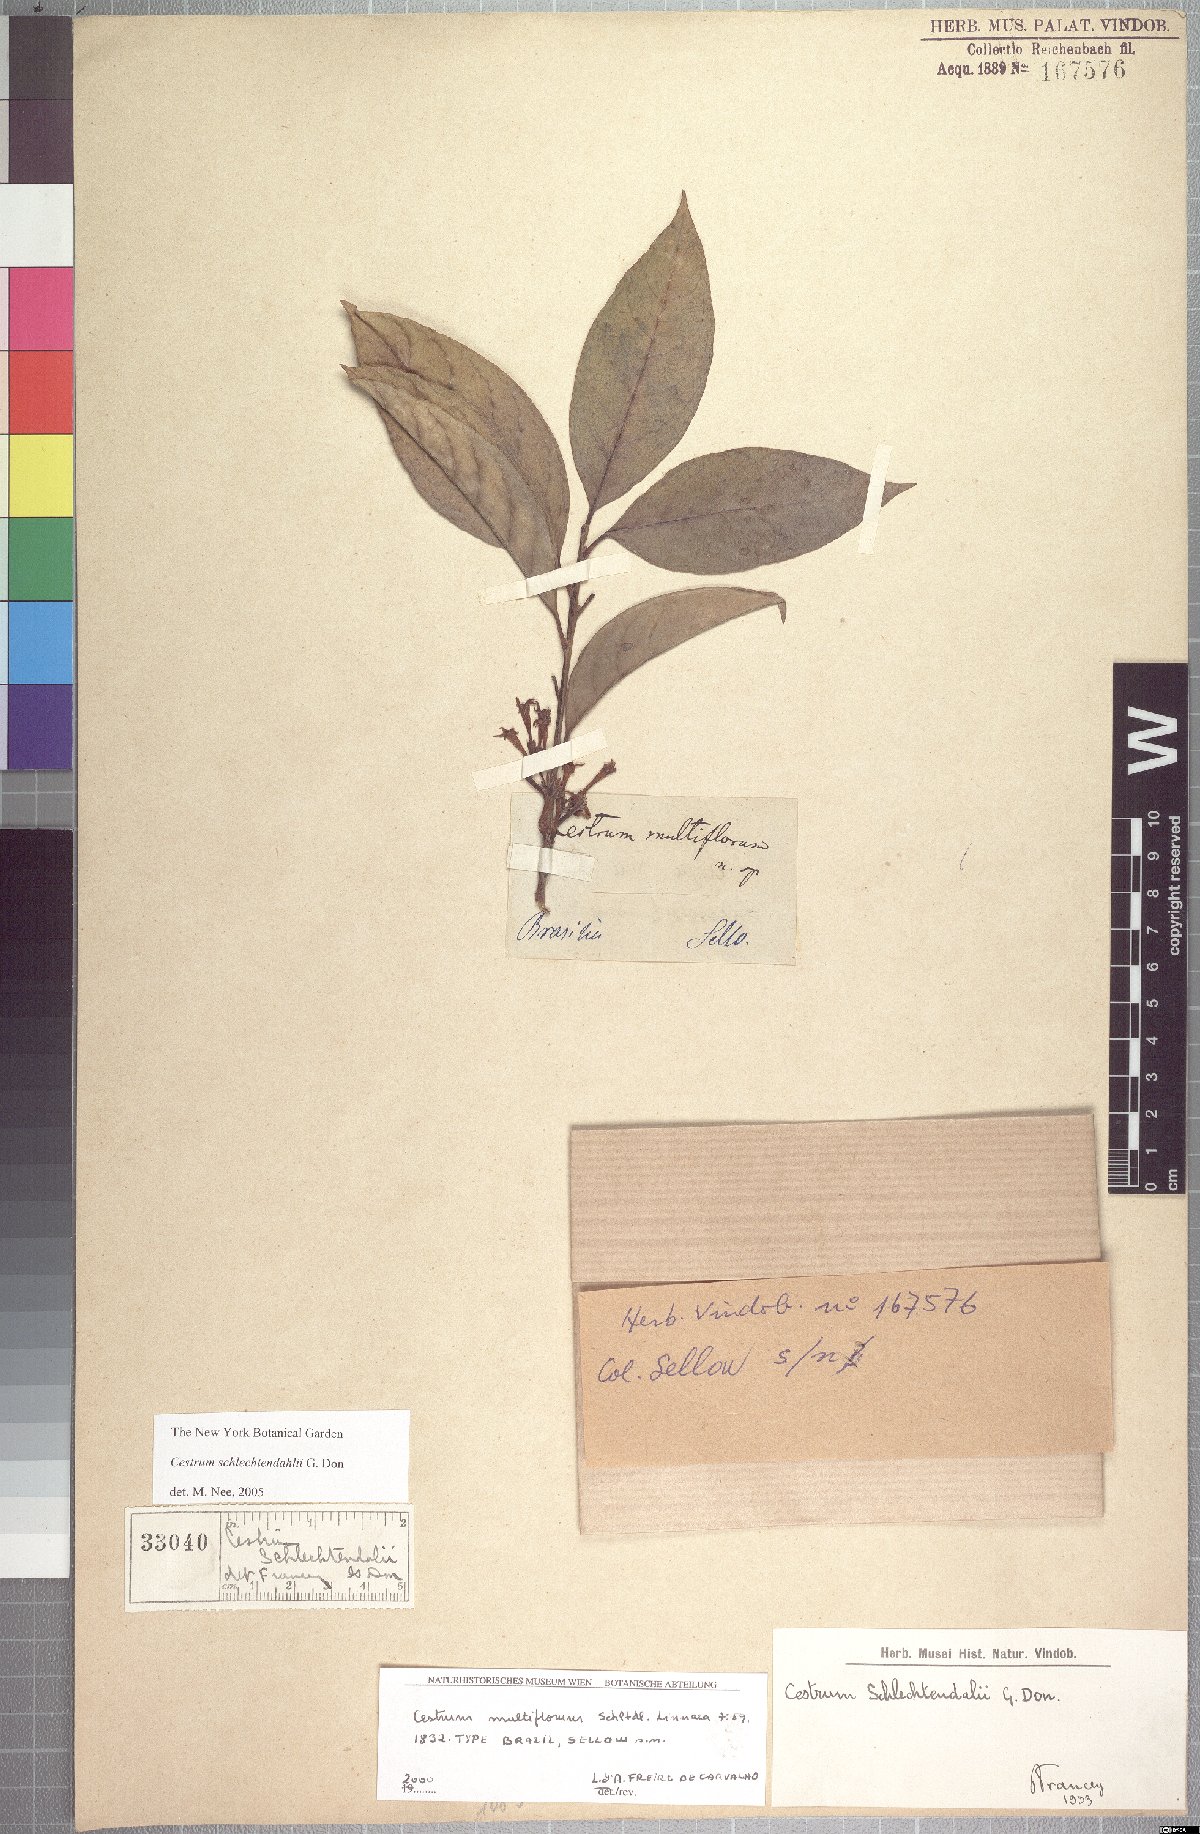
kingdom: Plantae
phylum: Tracheophyta
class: Magnoliopsida
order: Solanales
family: Solanaceae
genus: Cestrum
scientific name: Cestrum schlechtendalii
